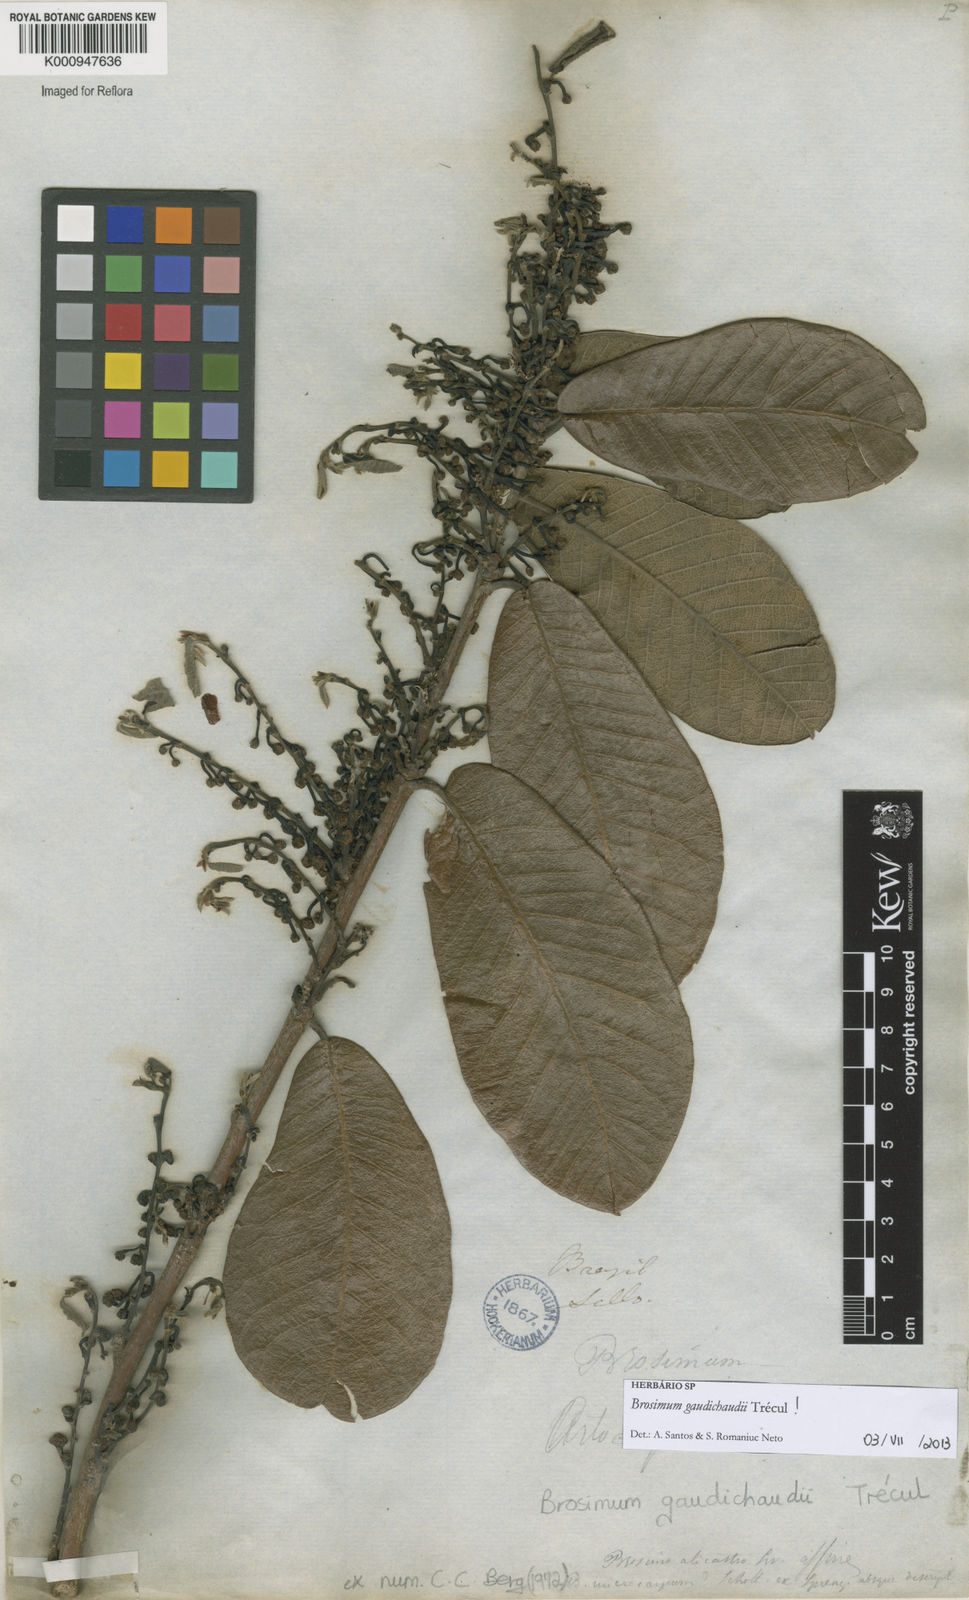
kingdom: Plantae
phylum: Tracheophyta
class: Magnoliopsida
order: Rosales
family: Moraceae
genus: Brosimum
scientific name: Brosimum
